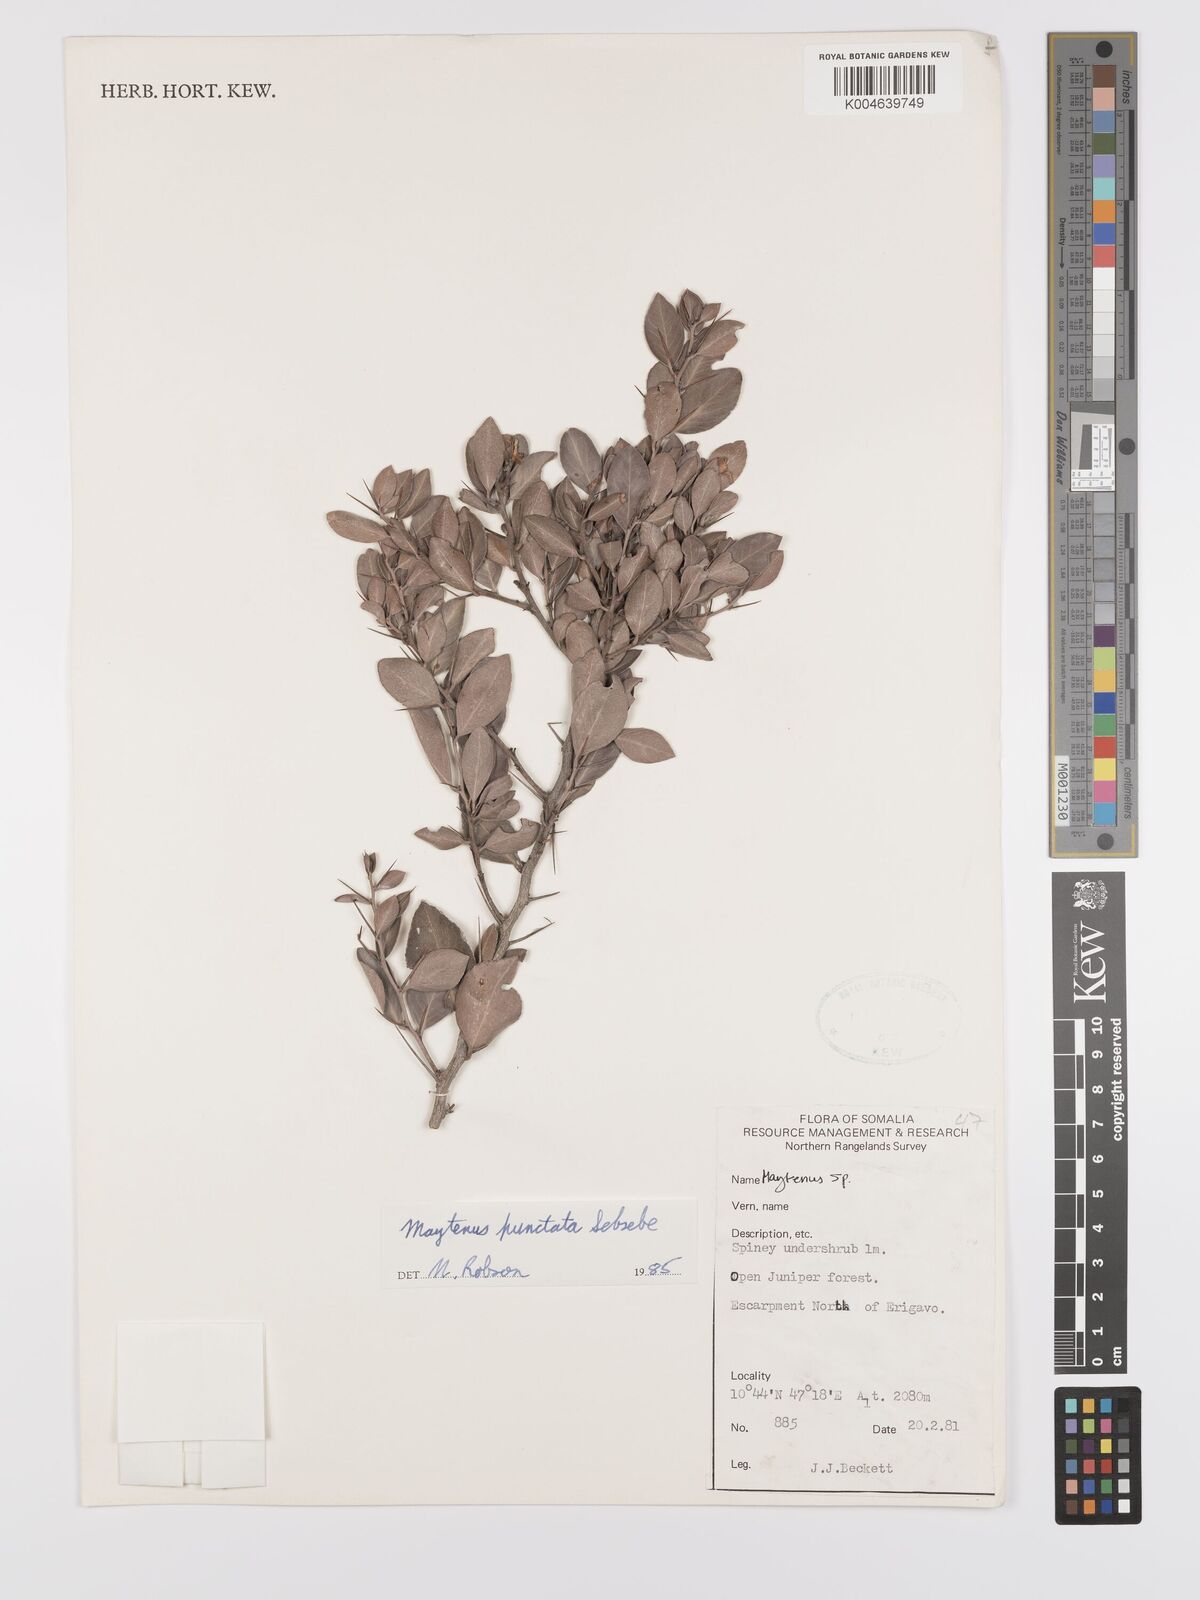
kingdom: Plantae
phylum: Tracheophyta
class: Magnoliopsida
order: Celastrales
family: Celastraceae
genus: Gymnosporia
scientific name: Gymnosporia punctata
